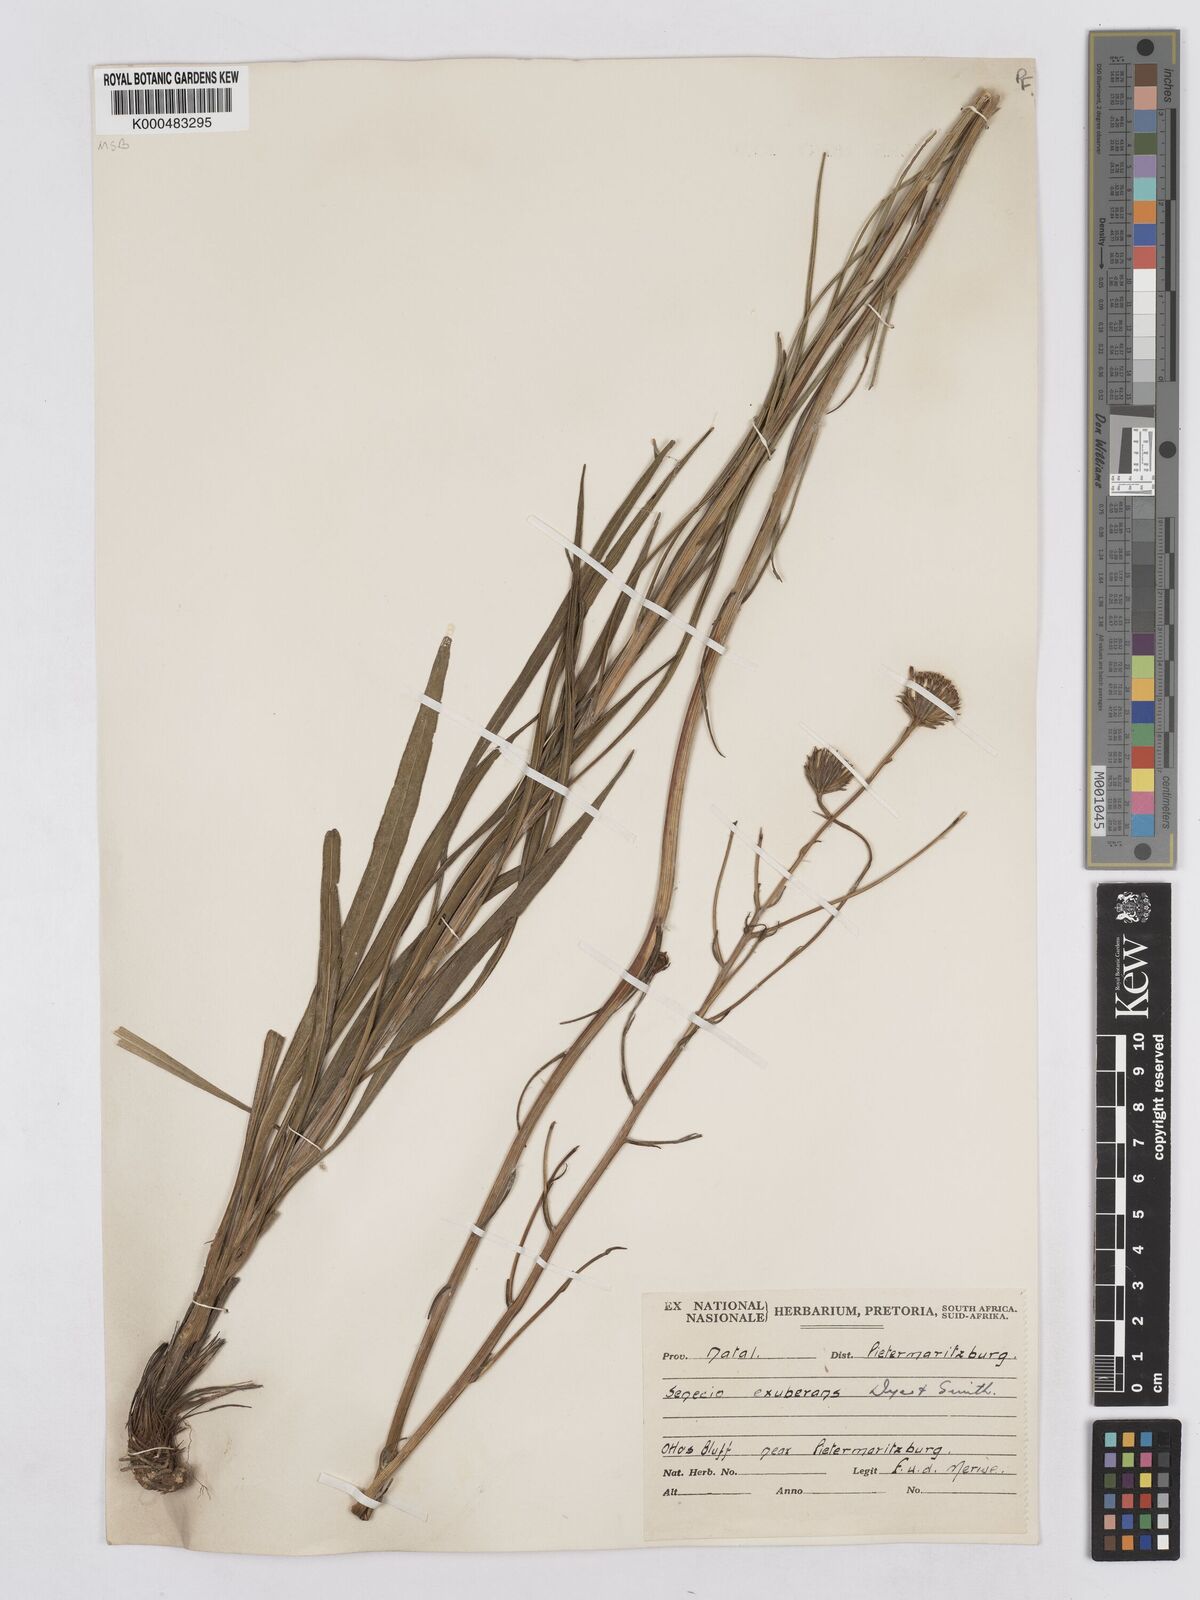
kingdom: Plantae
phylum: Tracheophyta
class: Magnoliopsida
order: Asterales
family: Asteraceae
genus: Senecio
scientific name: Senecio exuberans
